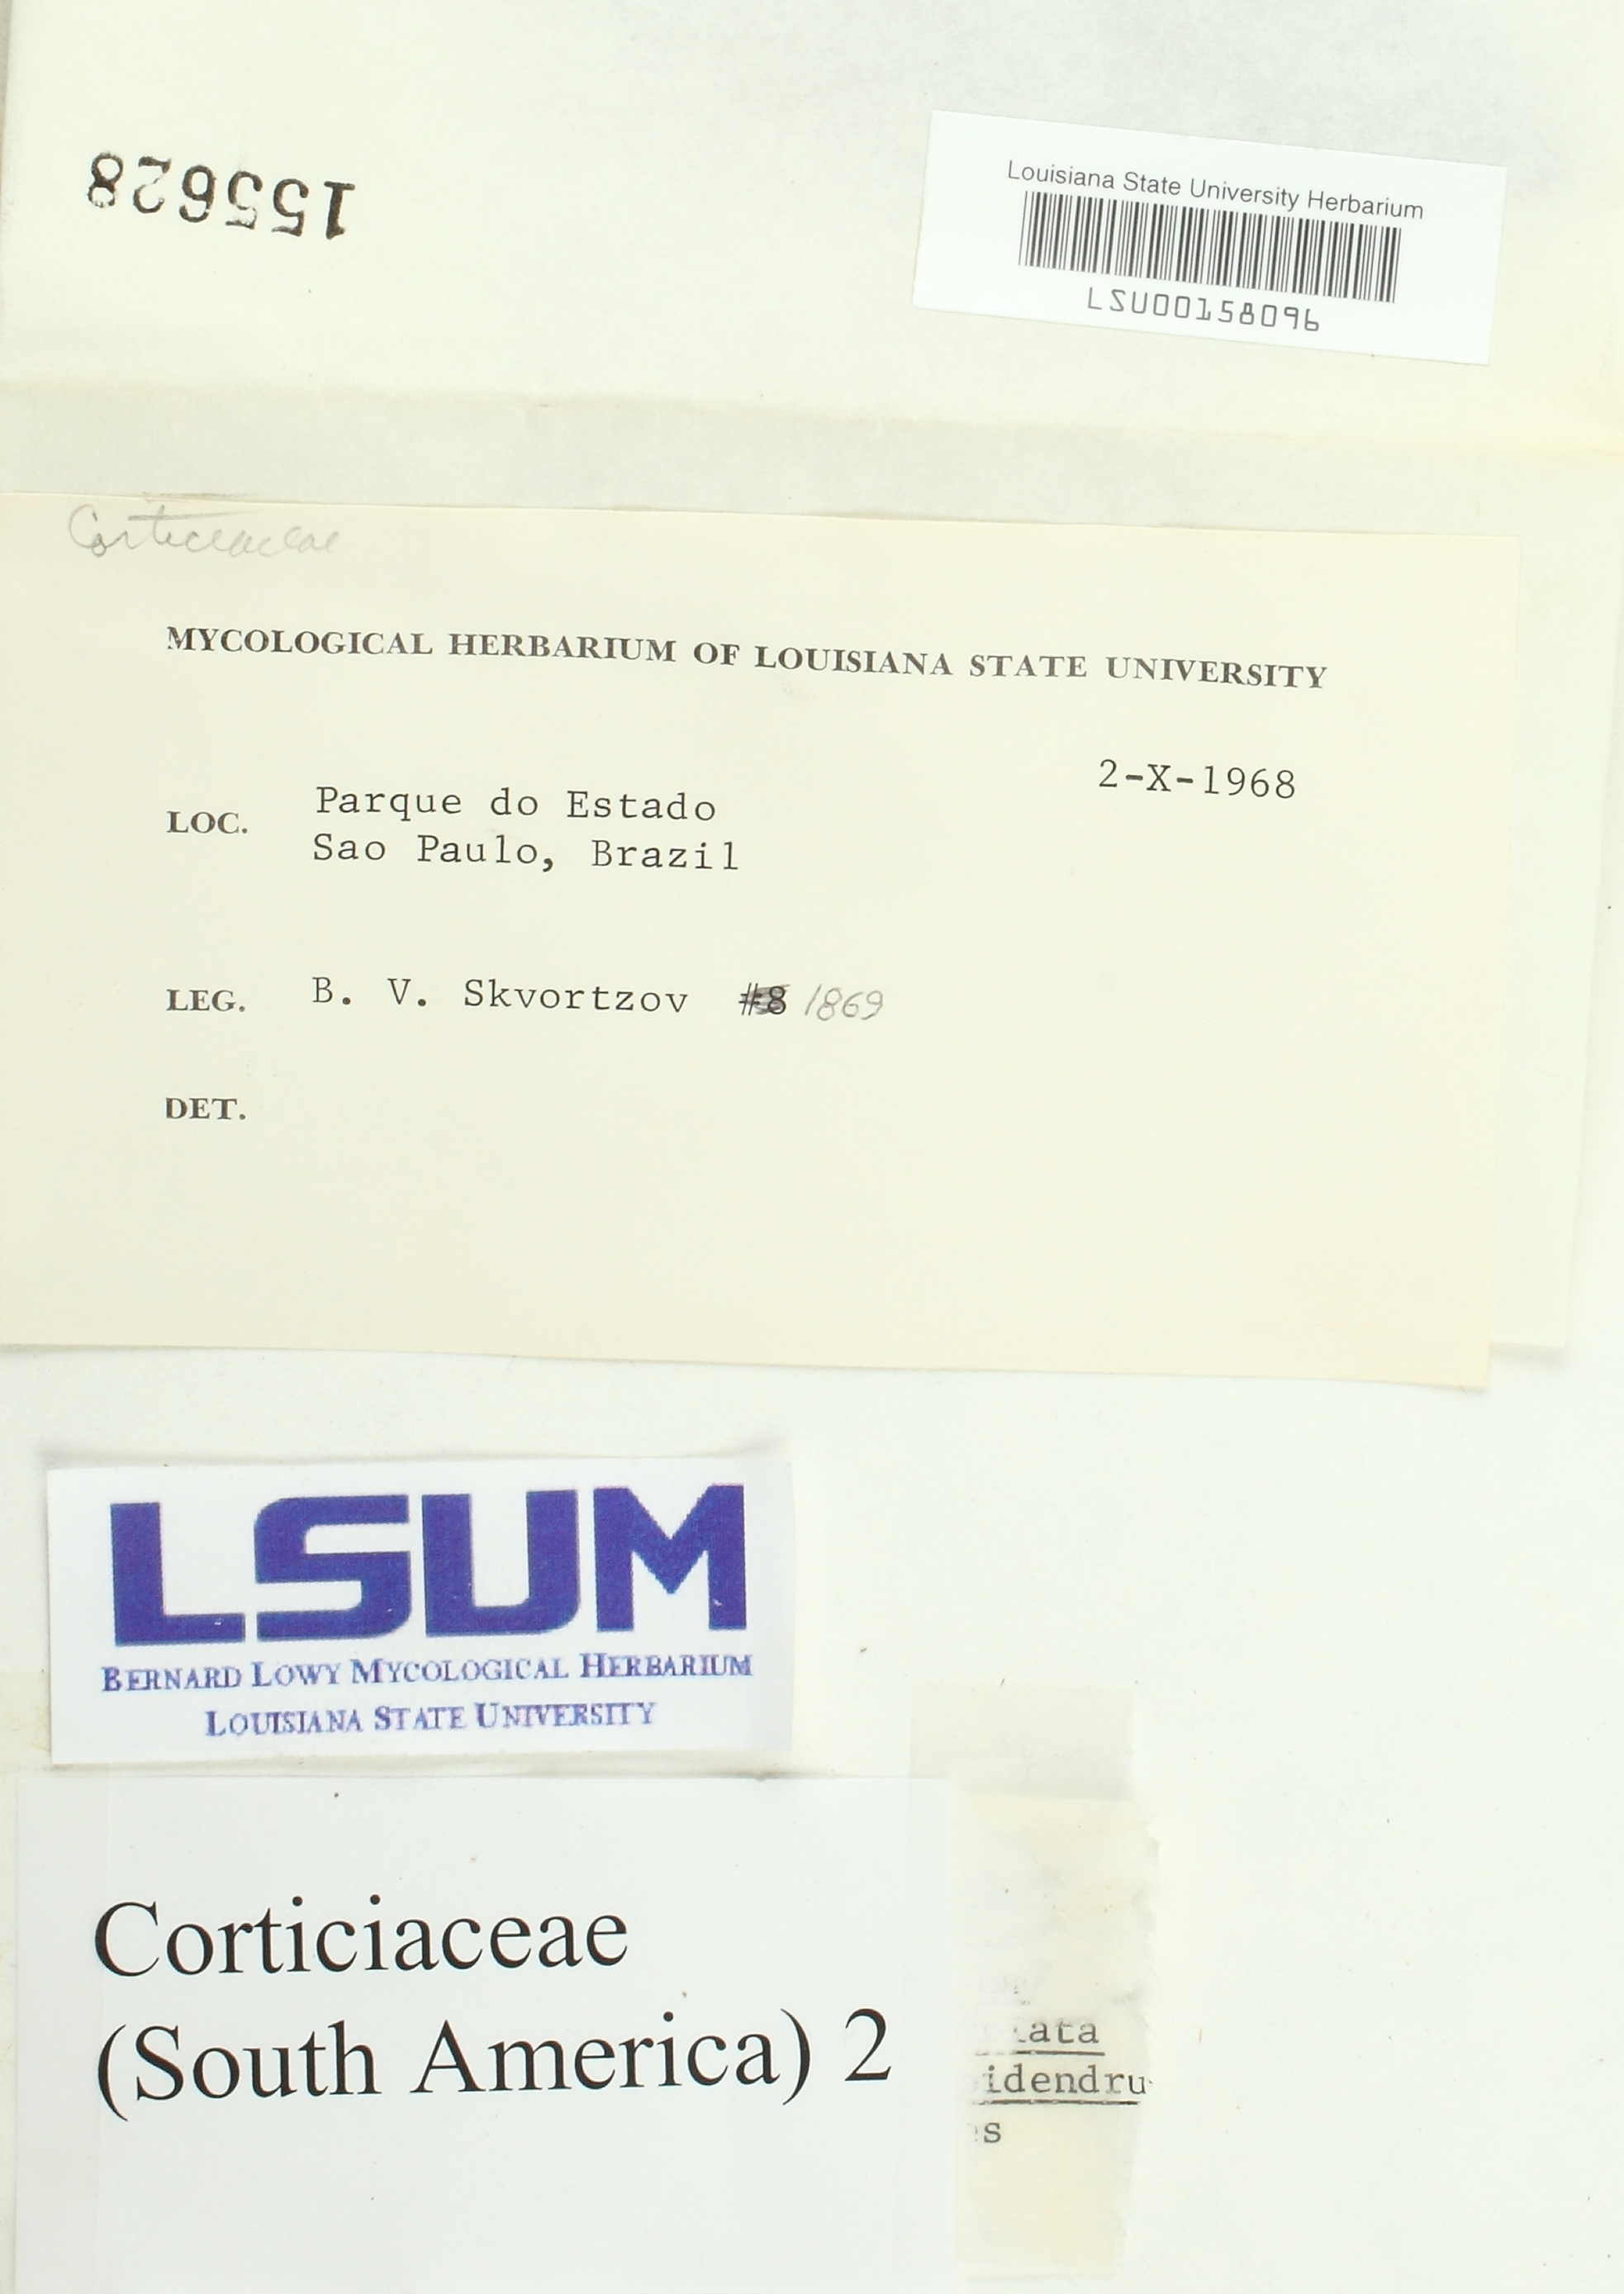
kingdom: Fungi
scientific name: Fungi
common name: Fungi
